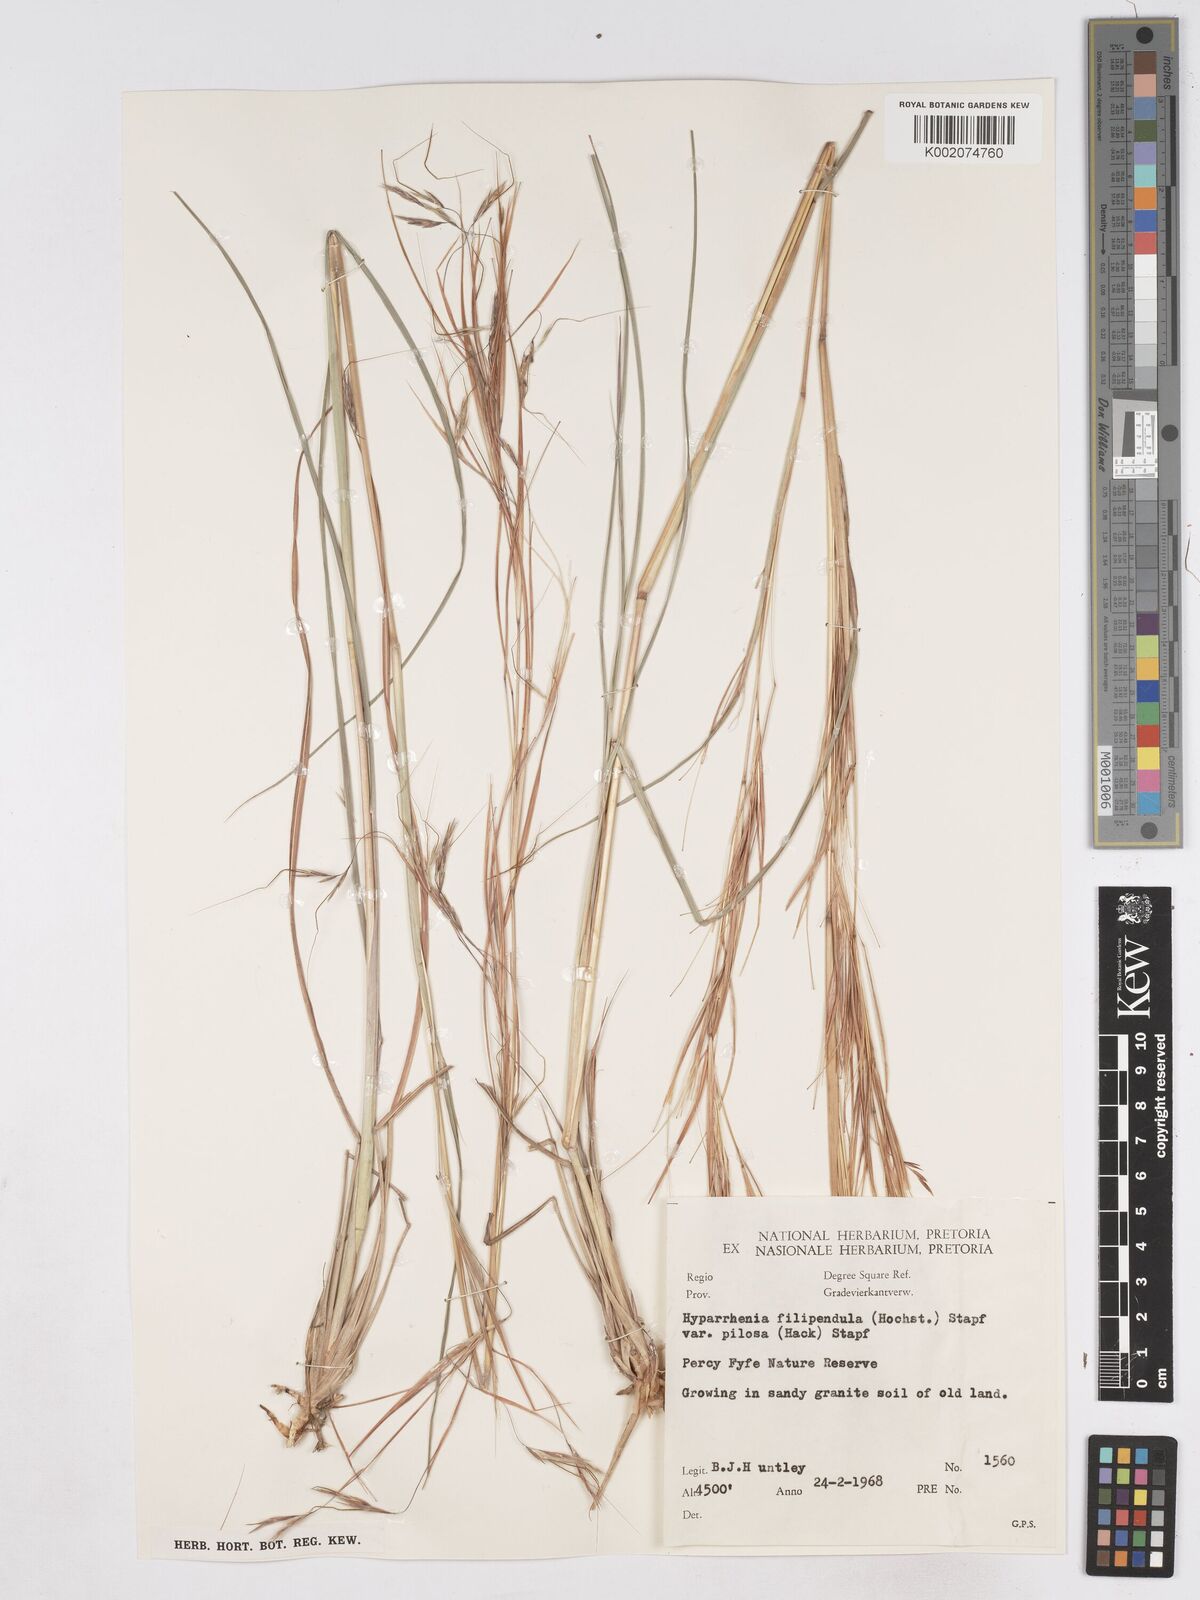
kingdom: Plantae
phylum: Tracheophyta
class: Liliopsida
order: Poales
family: Poaceae
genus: Hyparrhenia
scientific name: Hyparrhenia filipendula
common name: Tambookie grass
